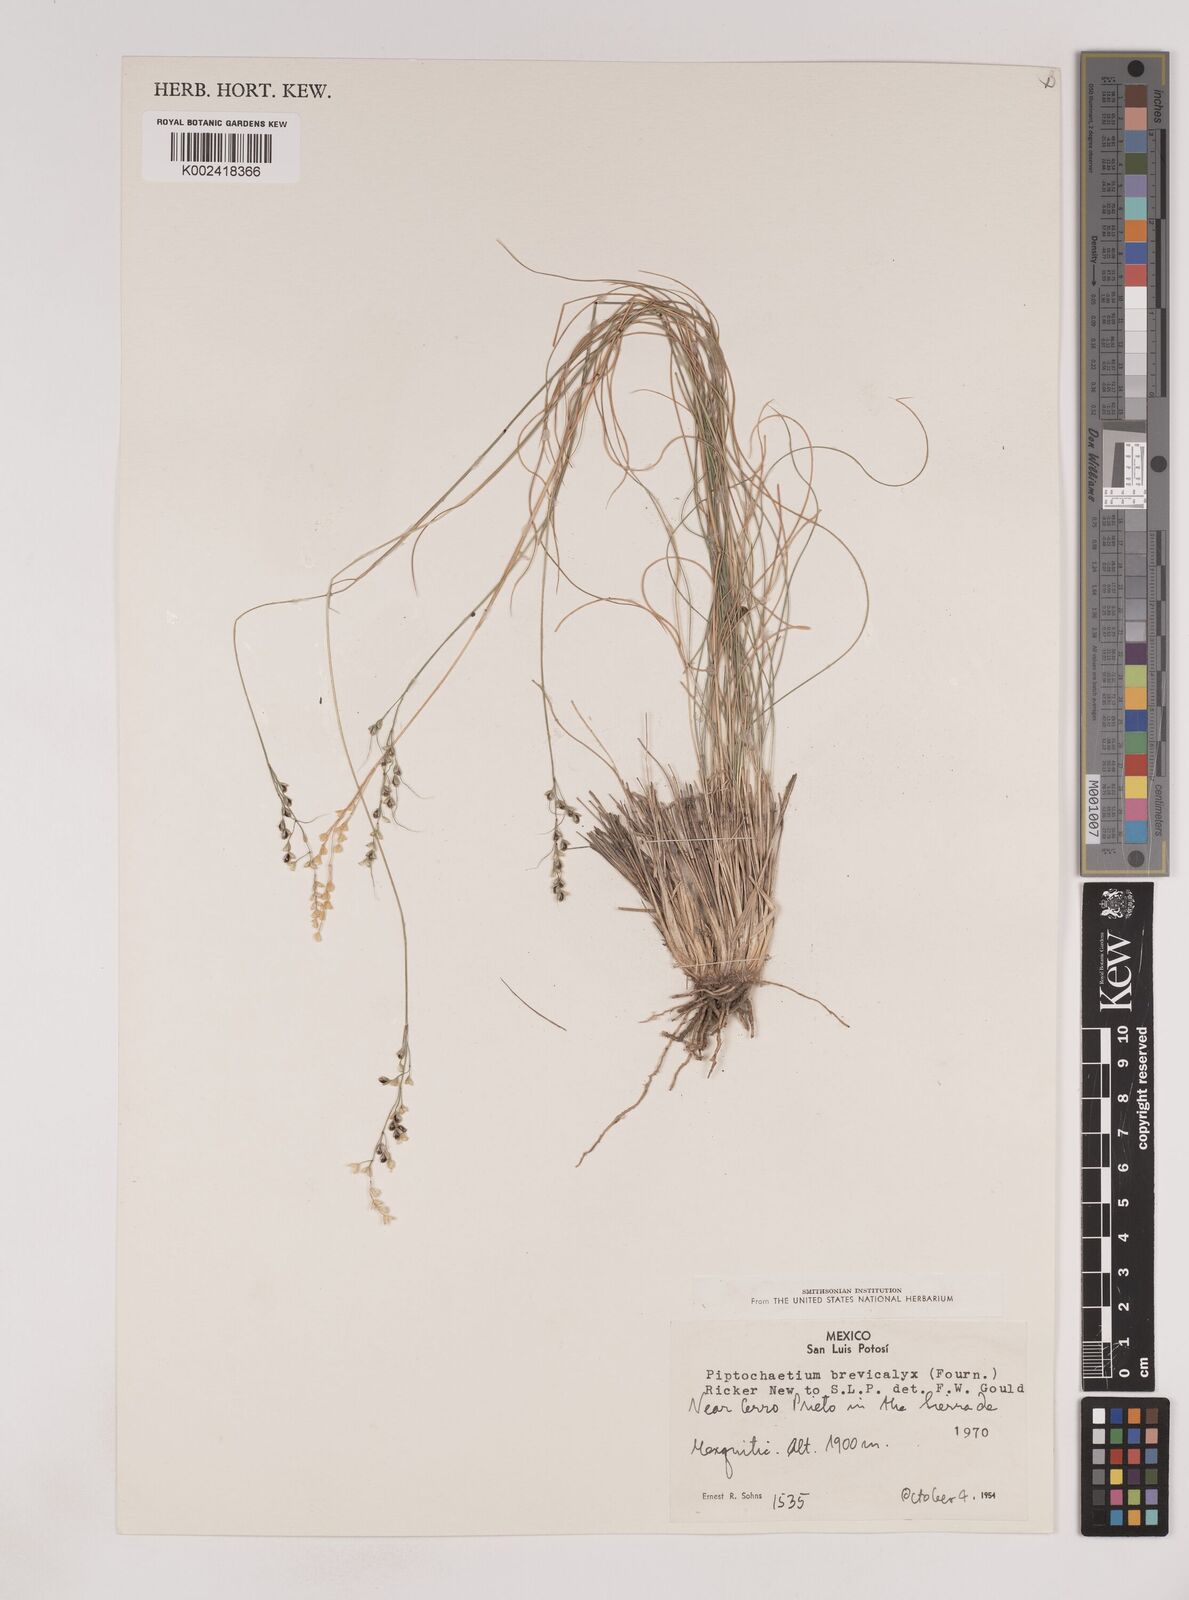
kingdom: Plantae
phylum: Tracheophyta
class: Liliopsida
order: Poales
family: Poaceae
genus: Piptochaetium
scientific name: Piptochaetium brevicalyx
